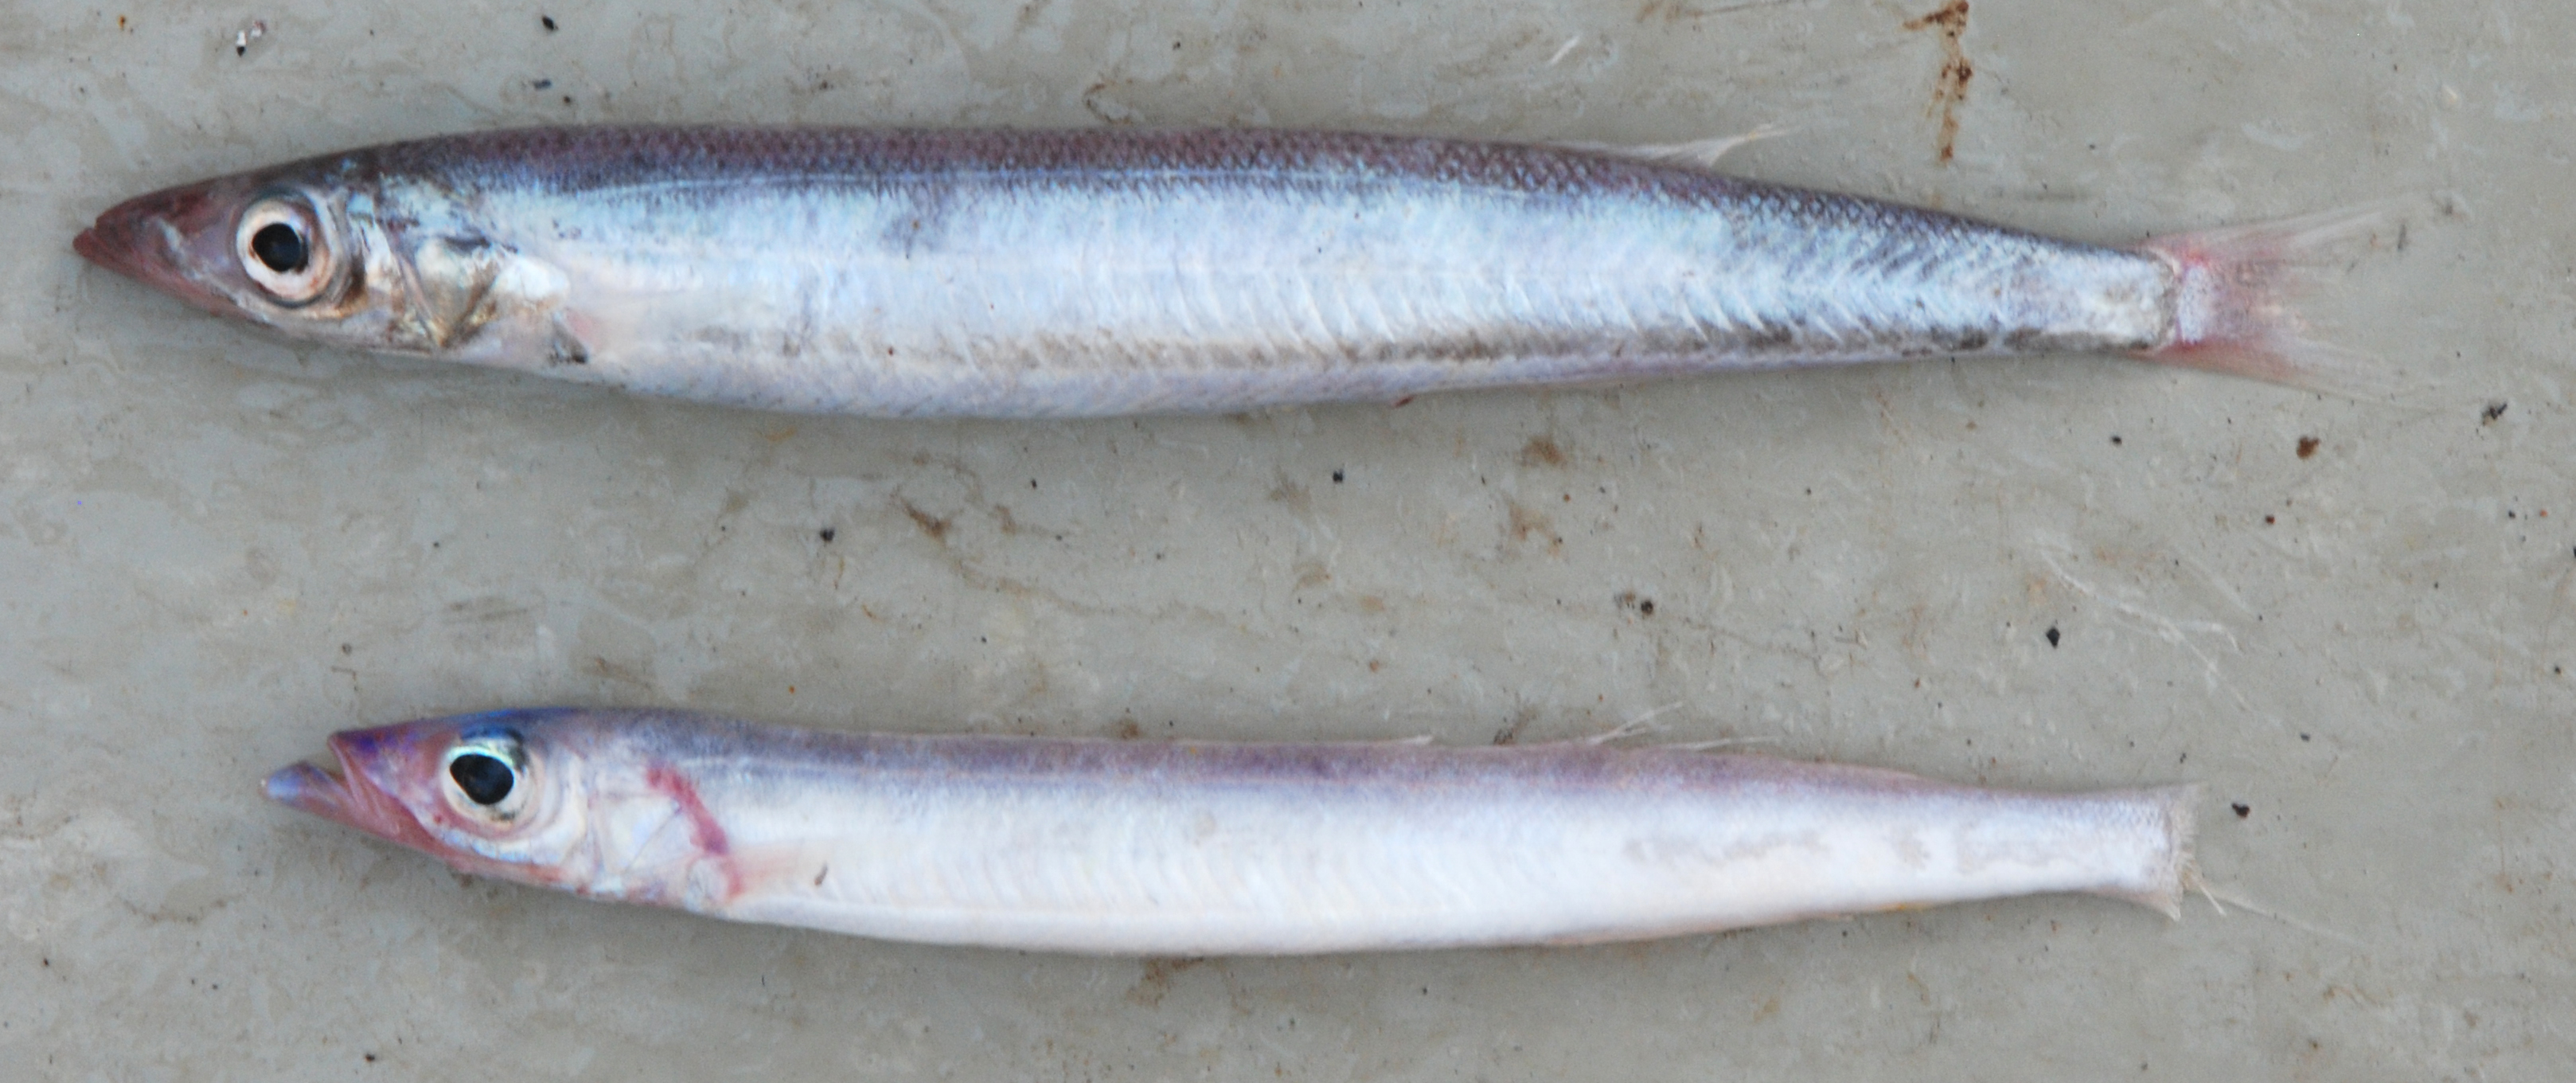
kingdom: Animalia
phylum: Chordata
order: Perciformes
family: Ammodytidae
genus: Bleekeria
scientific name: Bleekeria profunda
